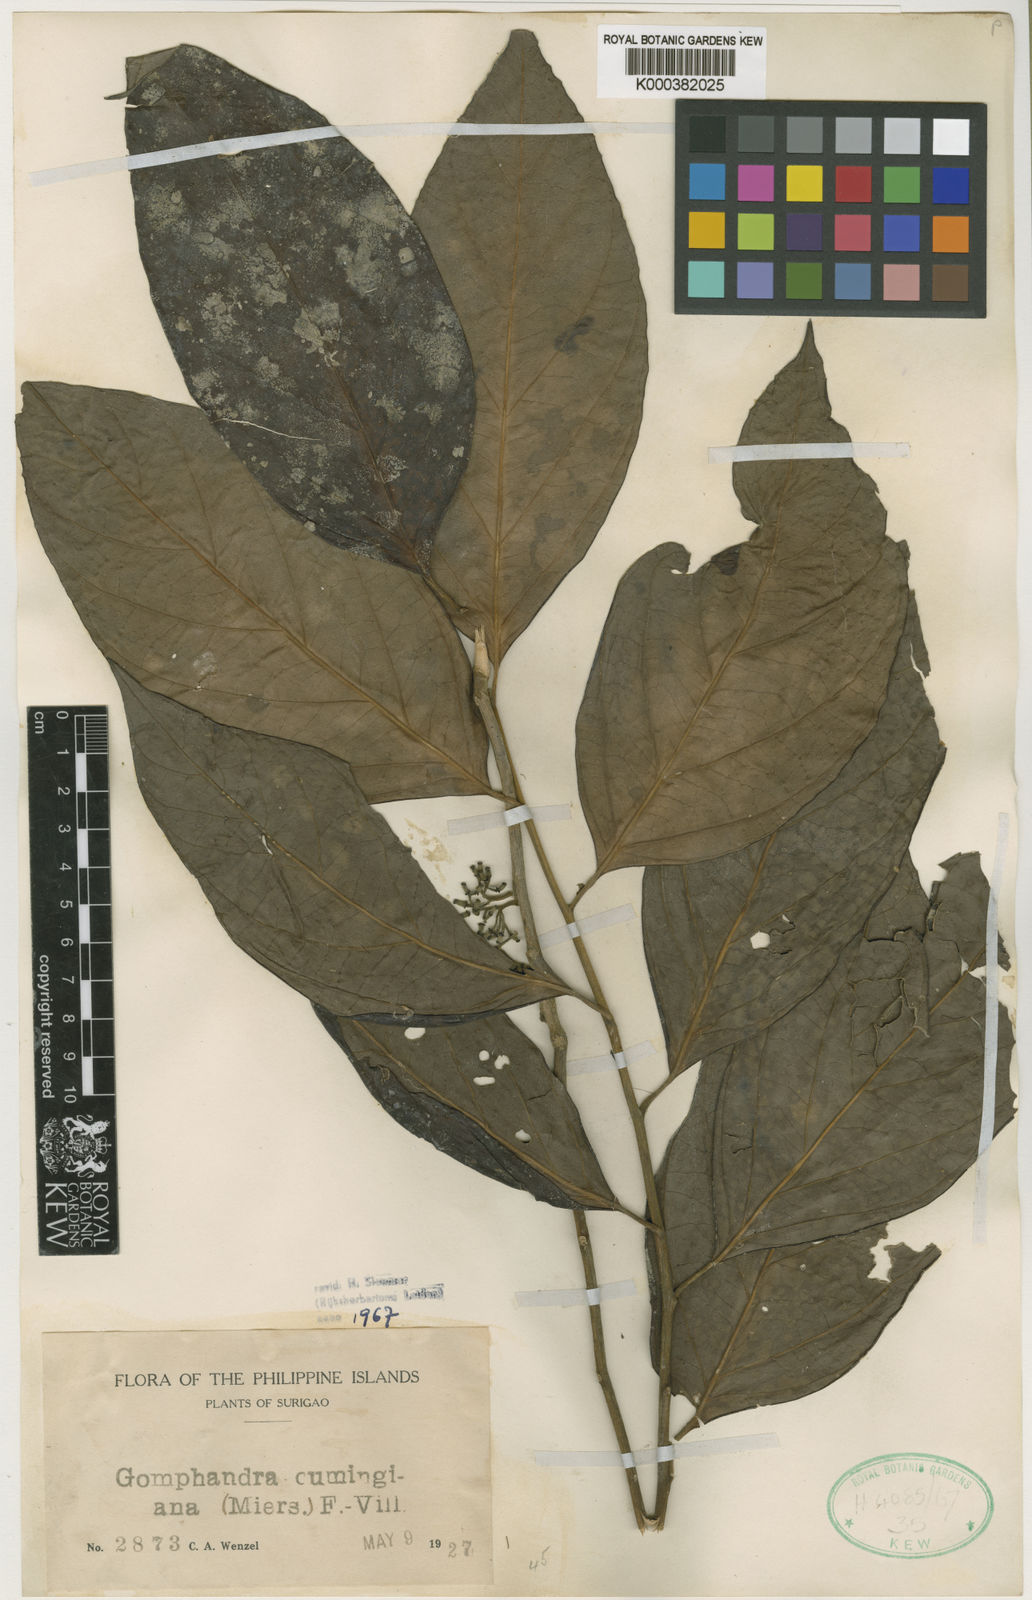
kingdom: Plantae
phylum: Tracheophyta
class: Magnoliopsida
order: Cardiopteridales
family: Stemonuraceae
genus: Gomphandra
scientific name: Gomphandra cumingiana
